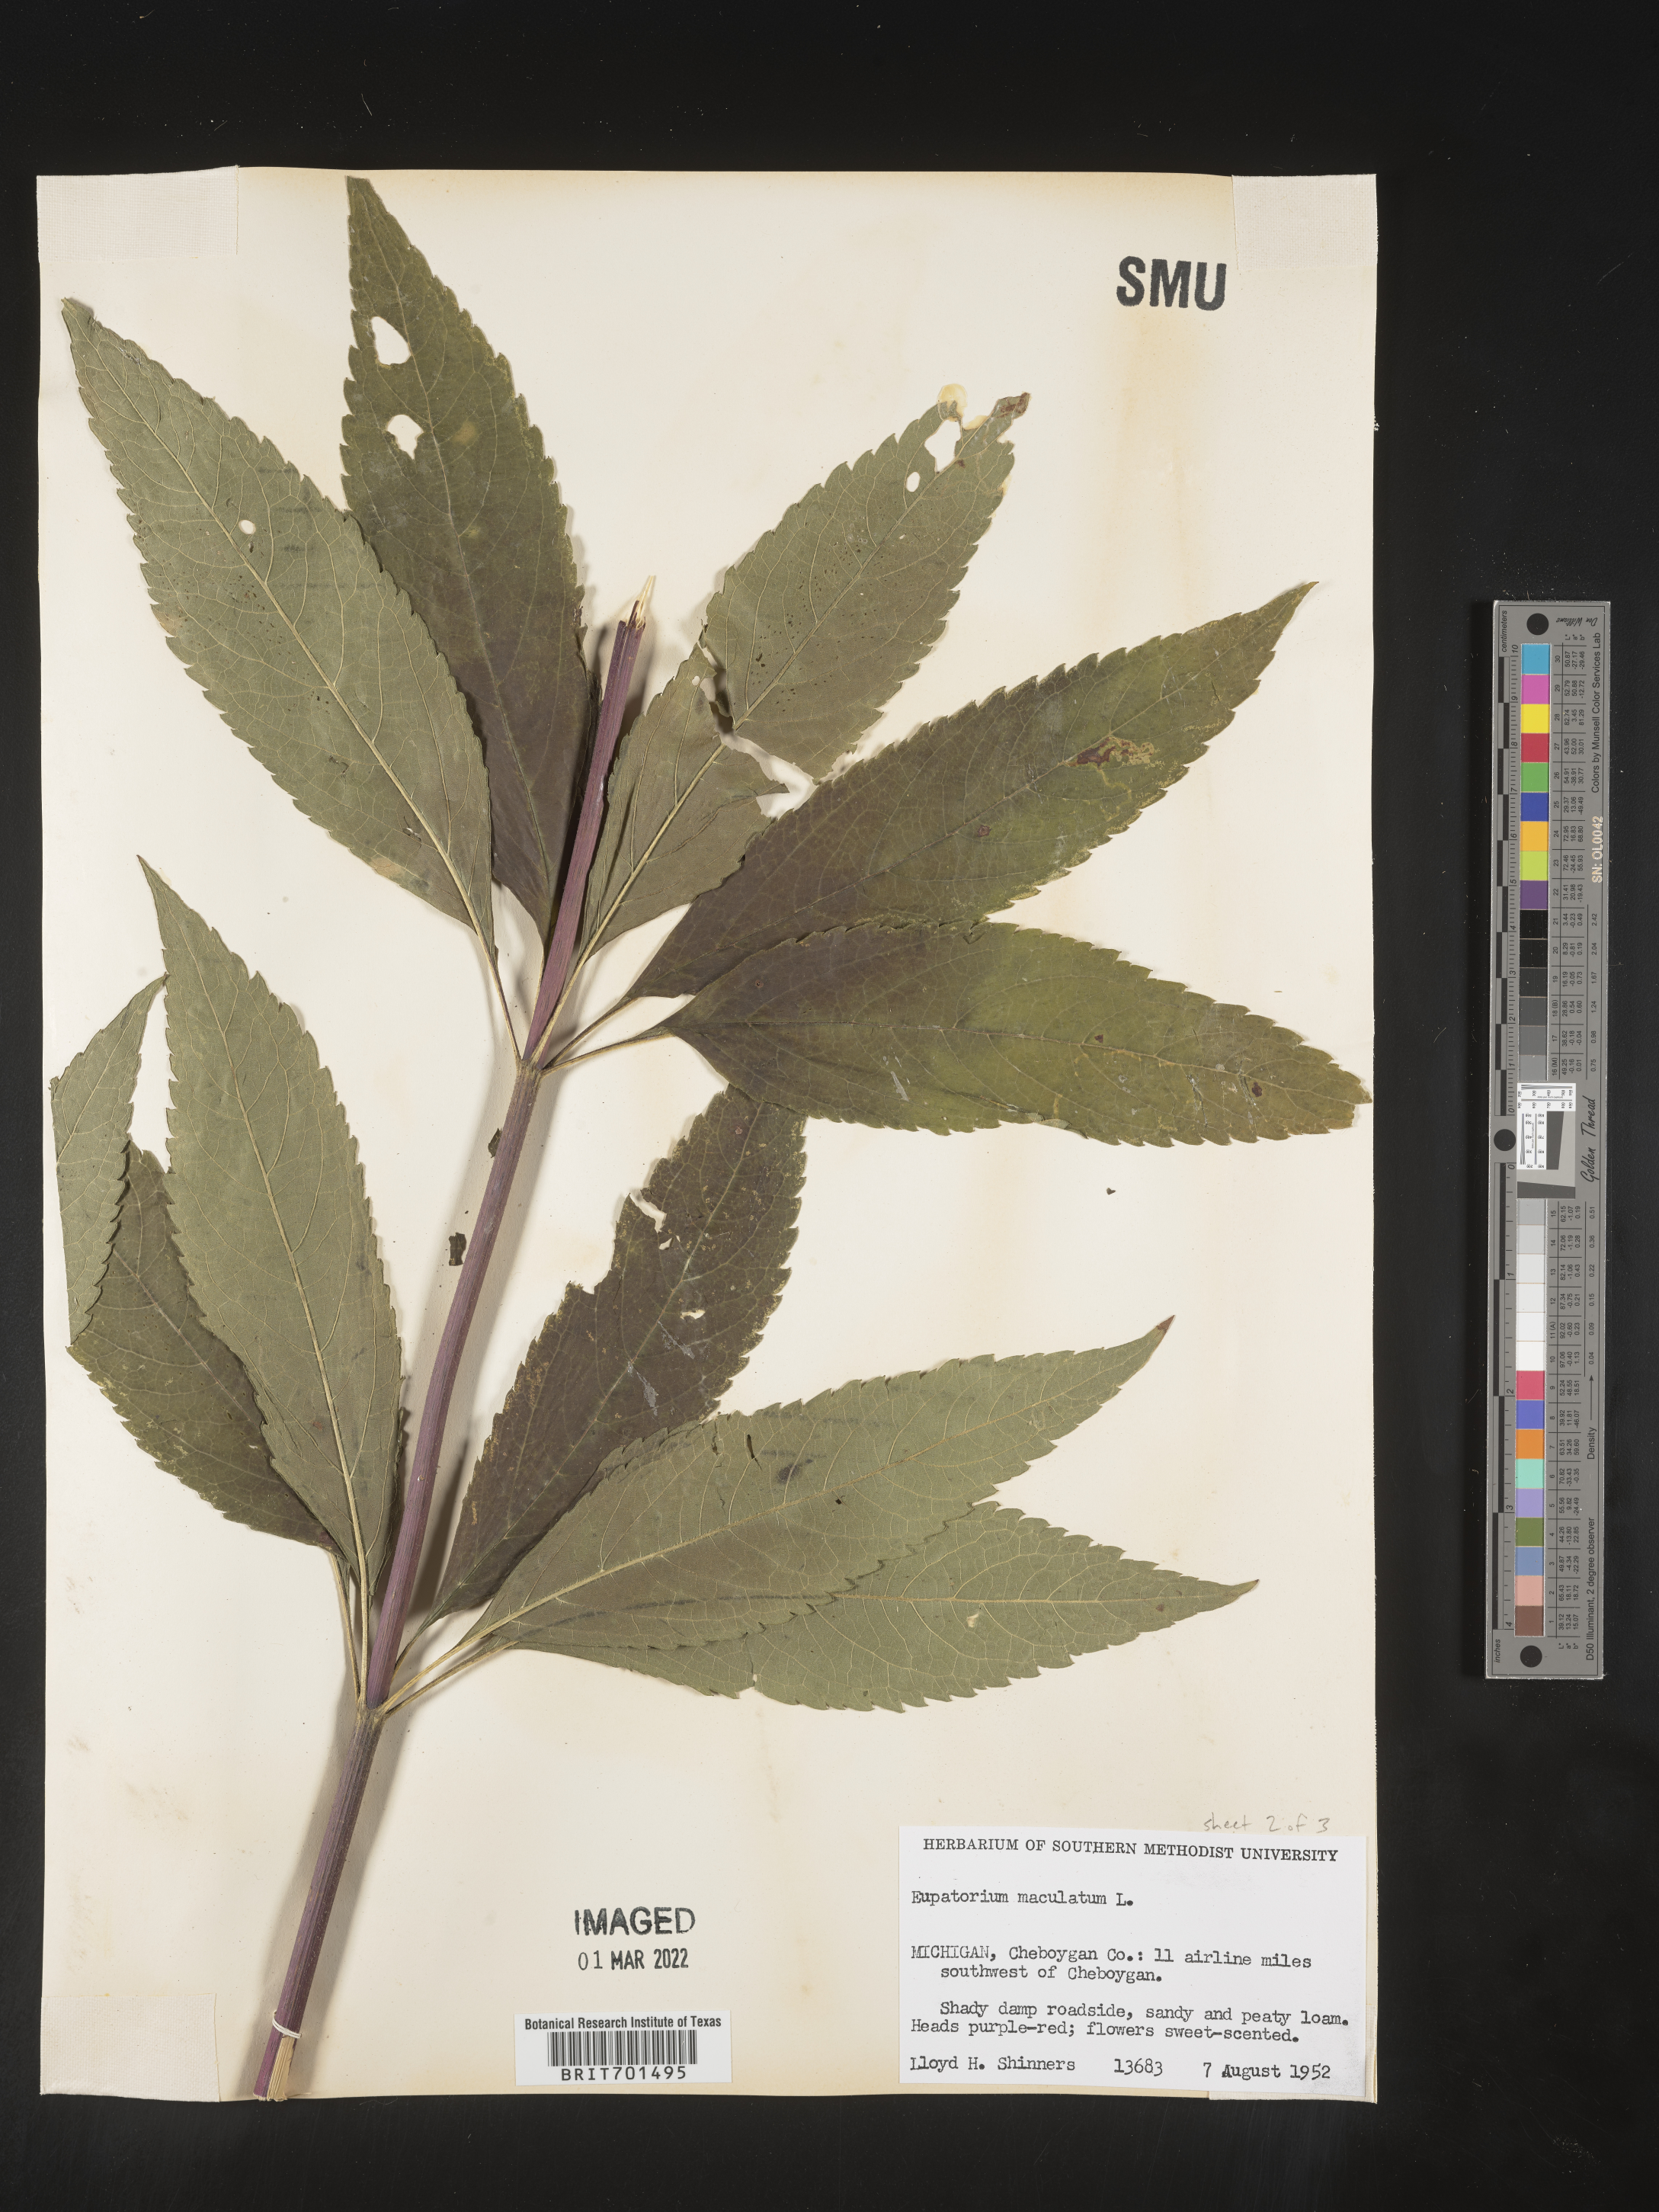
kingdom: Plantae
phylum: Tracheophyta
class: Magnoliopsida
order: Asterales
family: Asteraceae
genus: Eutrochium
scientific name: Eutrochium maculatum
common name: Spotted joe pye weed
